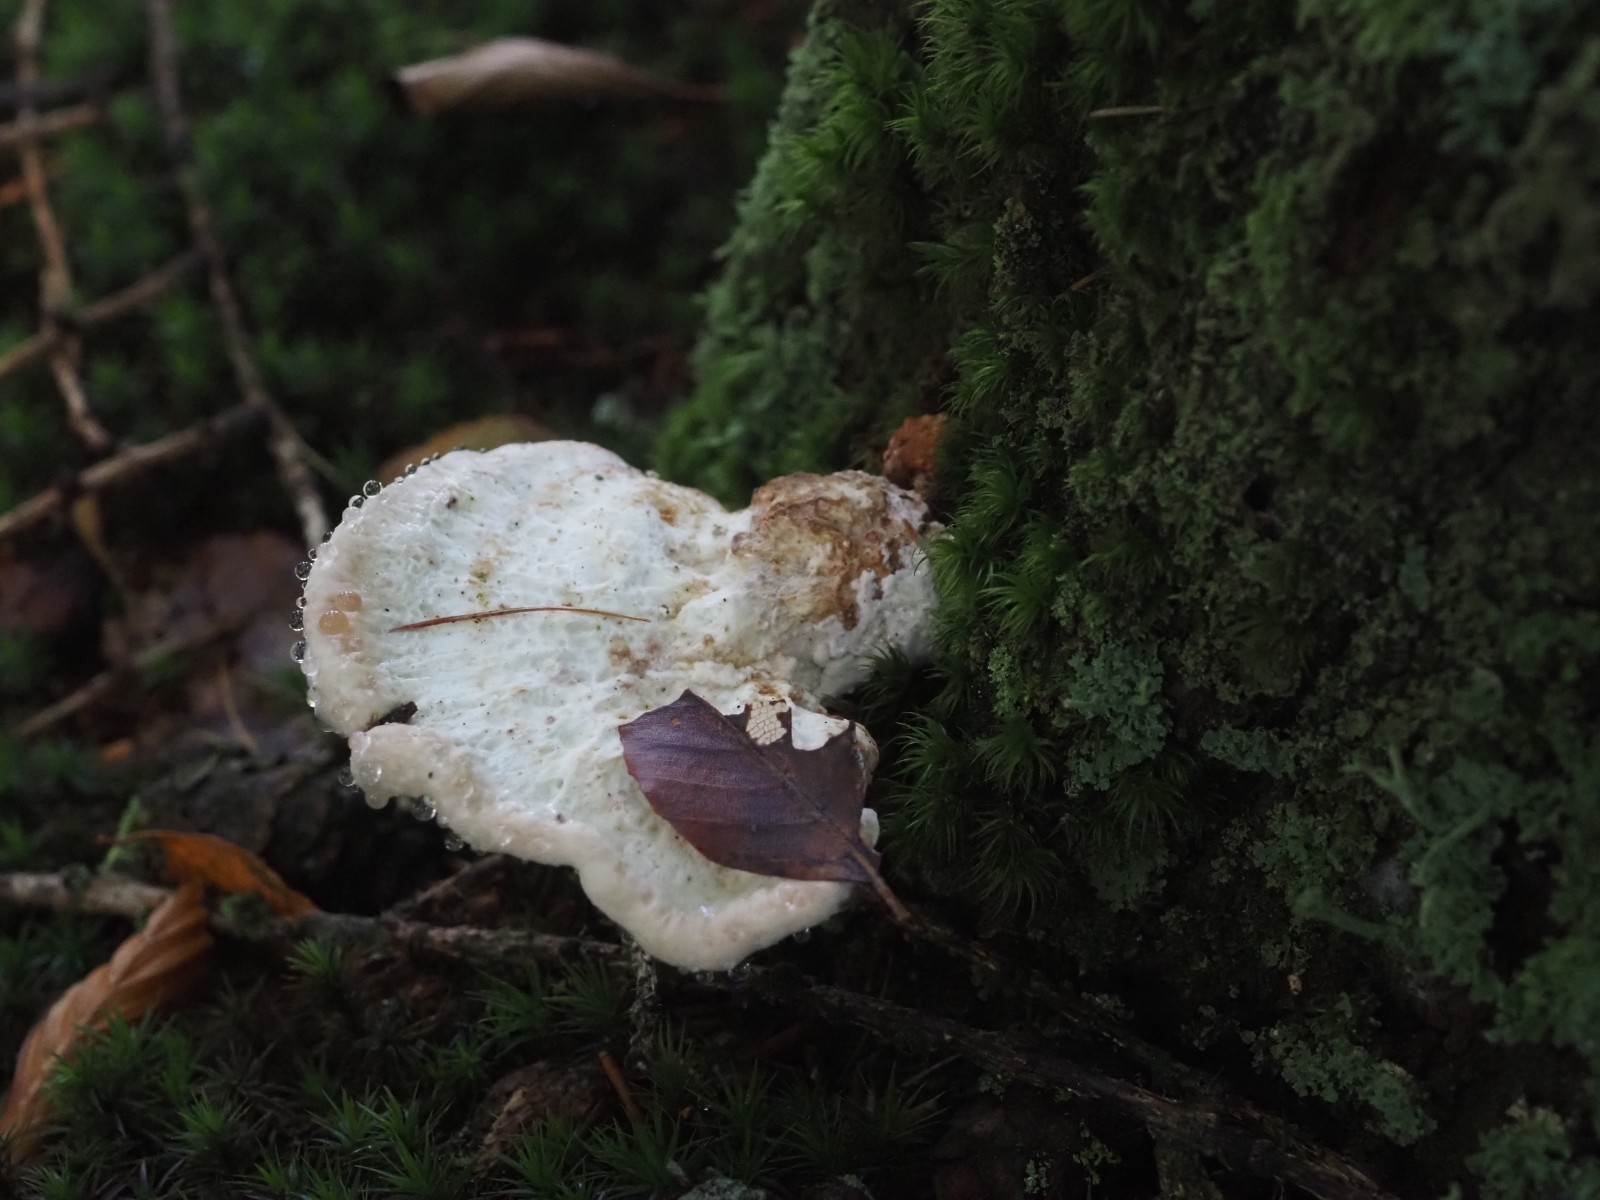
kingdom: Fungi
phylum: Basidiomycota
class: Agaricomycetes
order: Polyporales
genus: Calcipostia
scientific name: Calcipostia guttulata
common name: dråbe-kødporesvamp
